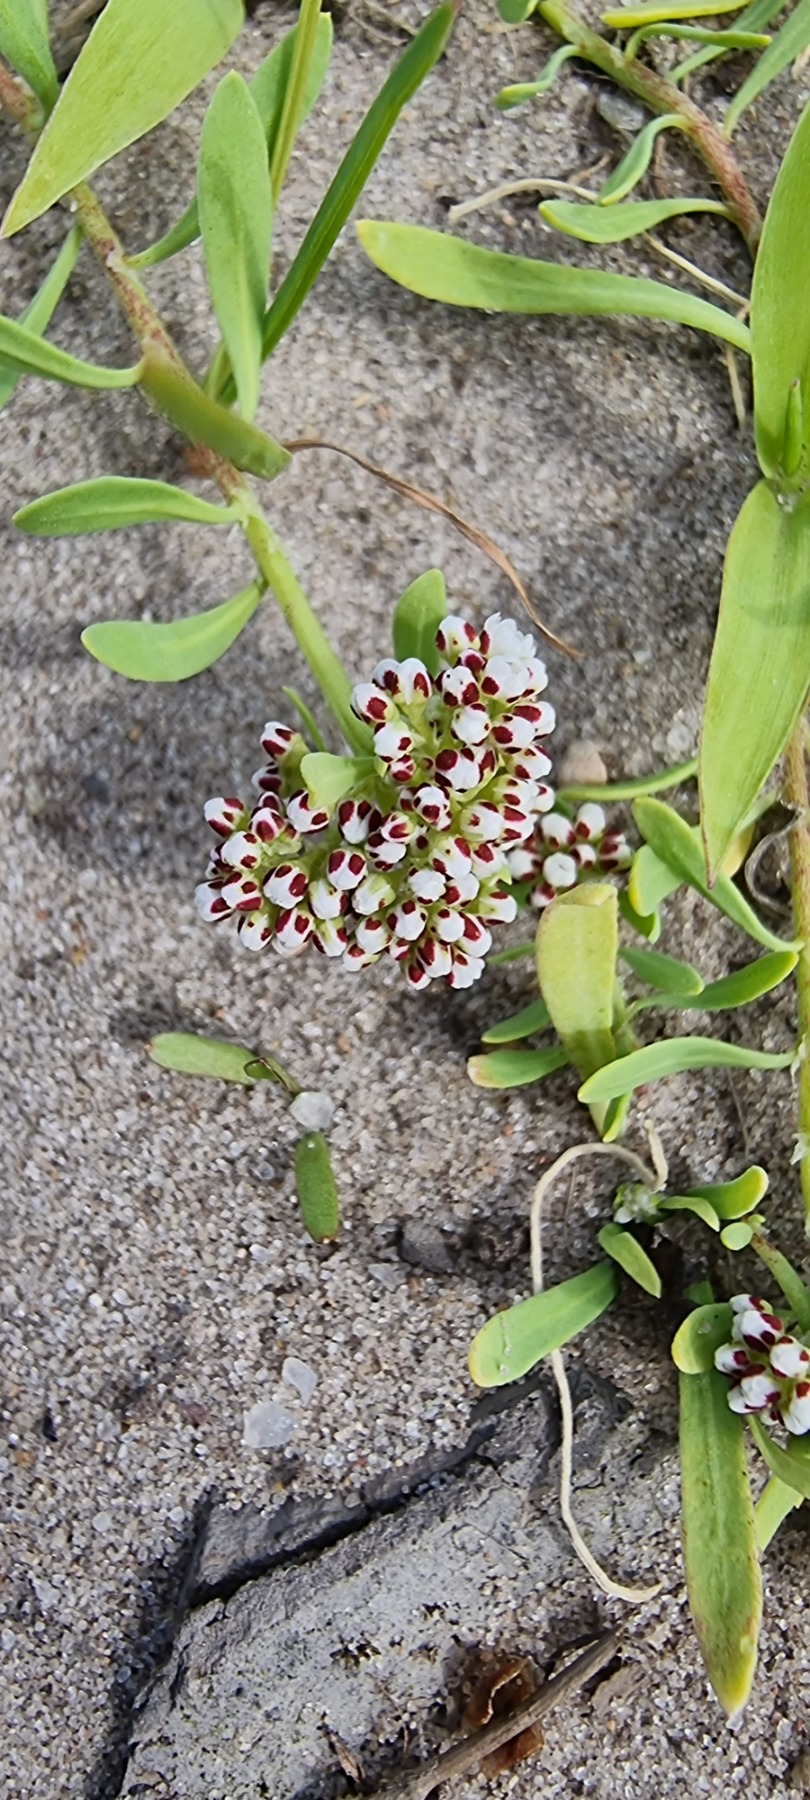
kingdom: Plantae
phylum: Tracheophyta
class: Magnoliopsida
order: Caryophyllales
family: Caryophyllaceae
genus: Corrigiola
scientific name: Corrigiola litoralis
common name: Skorem
